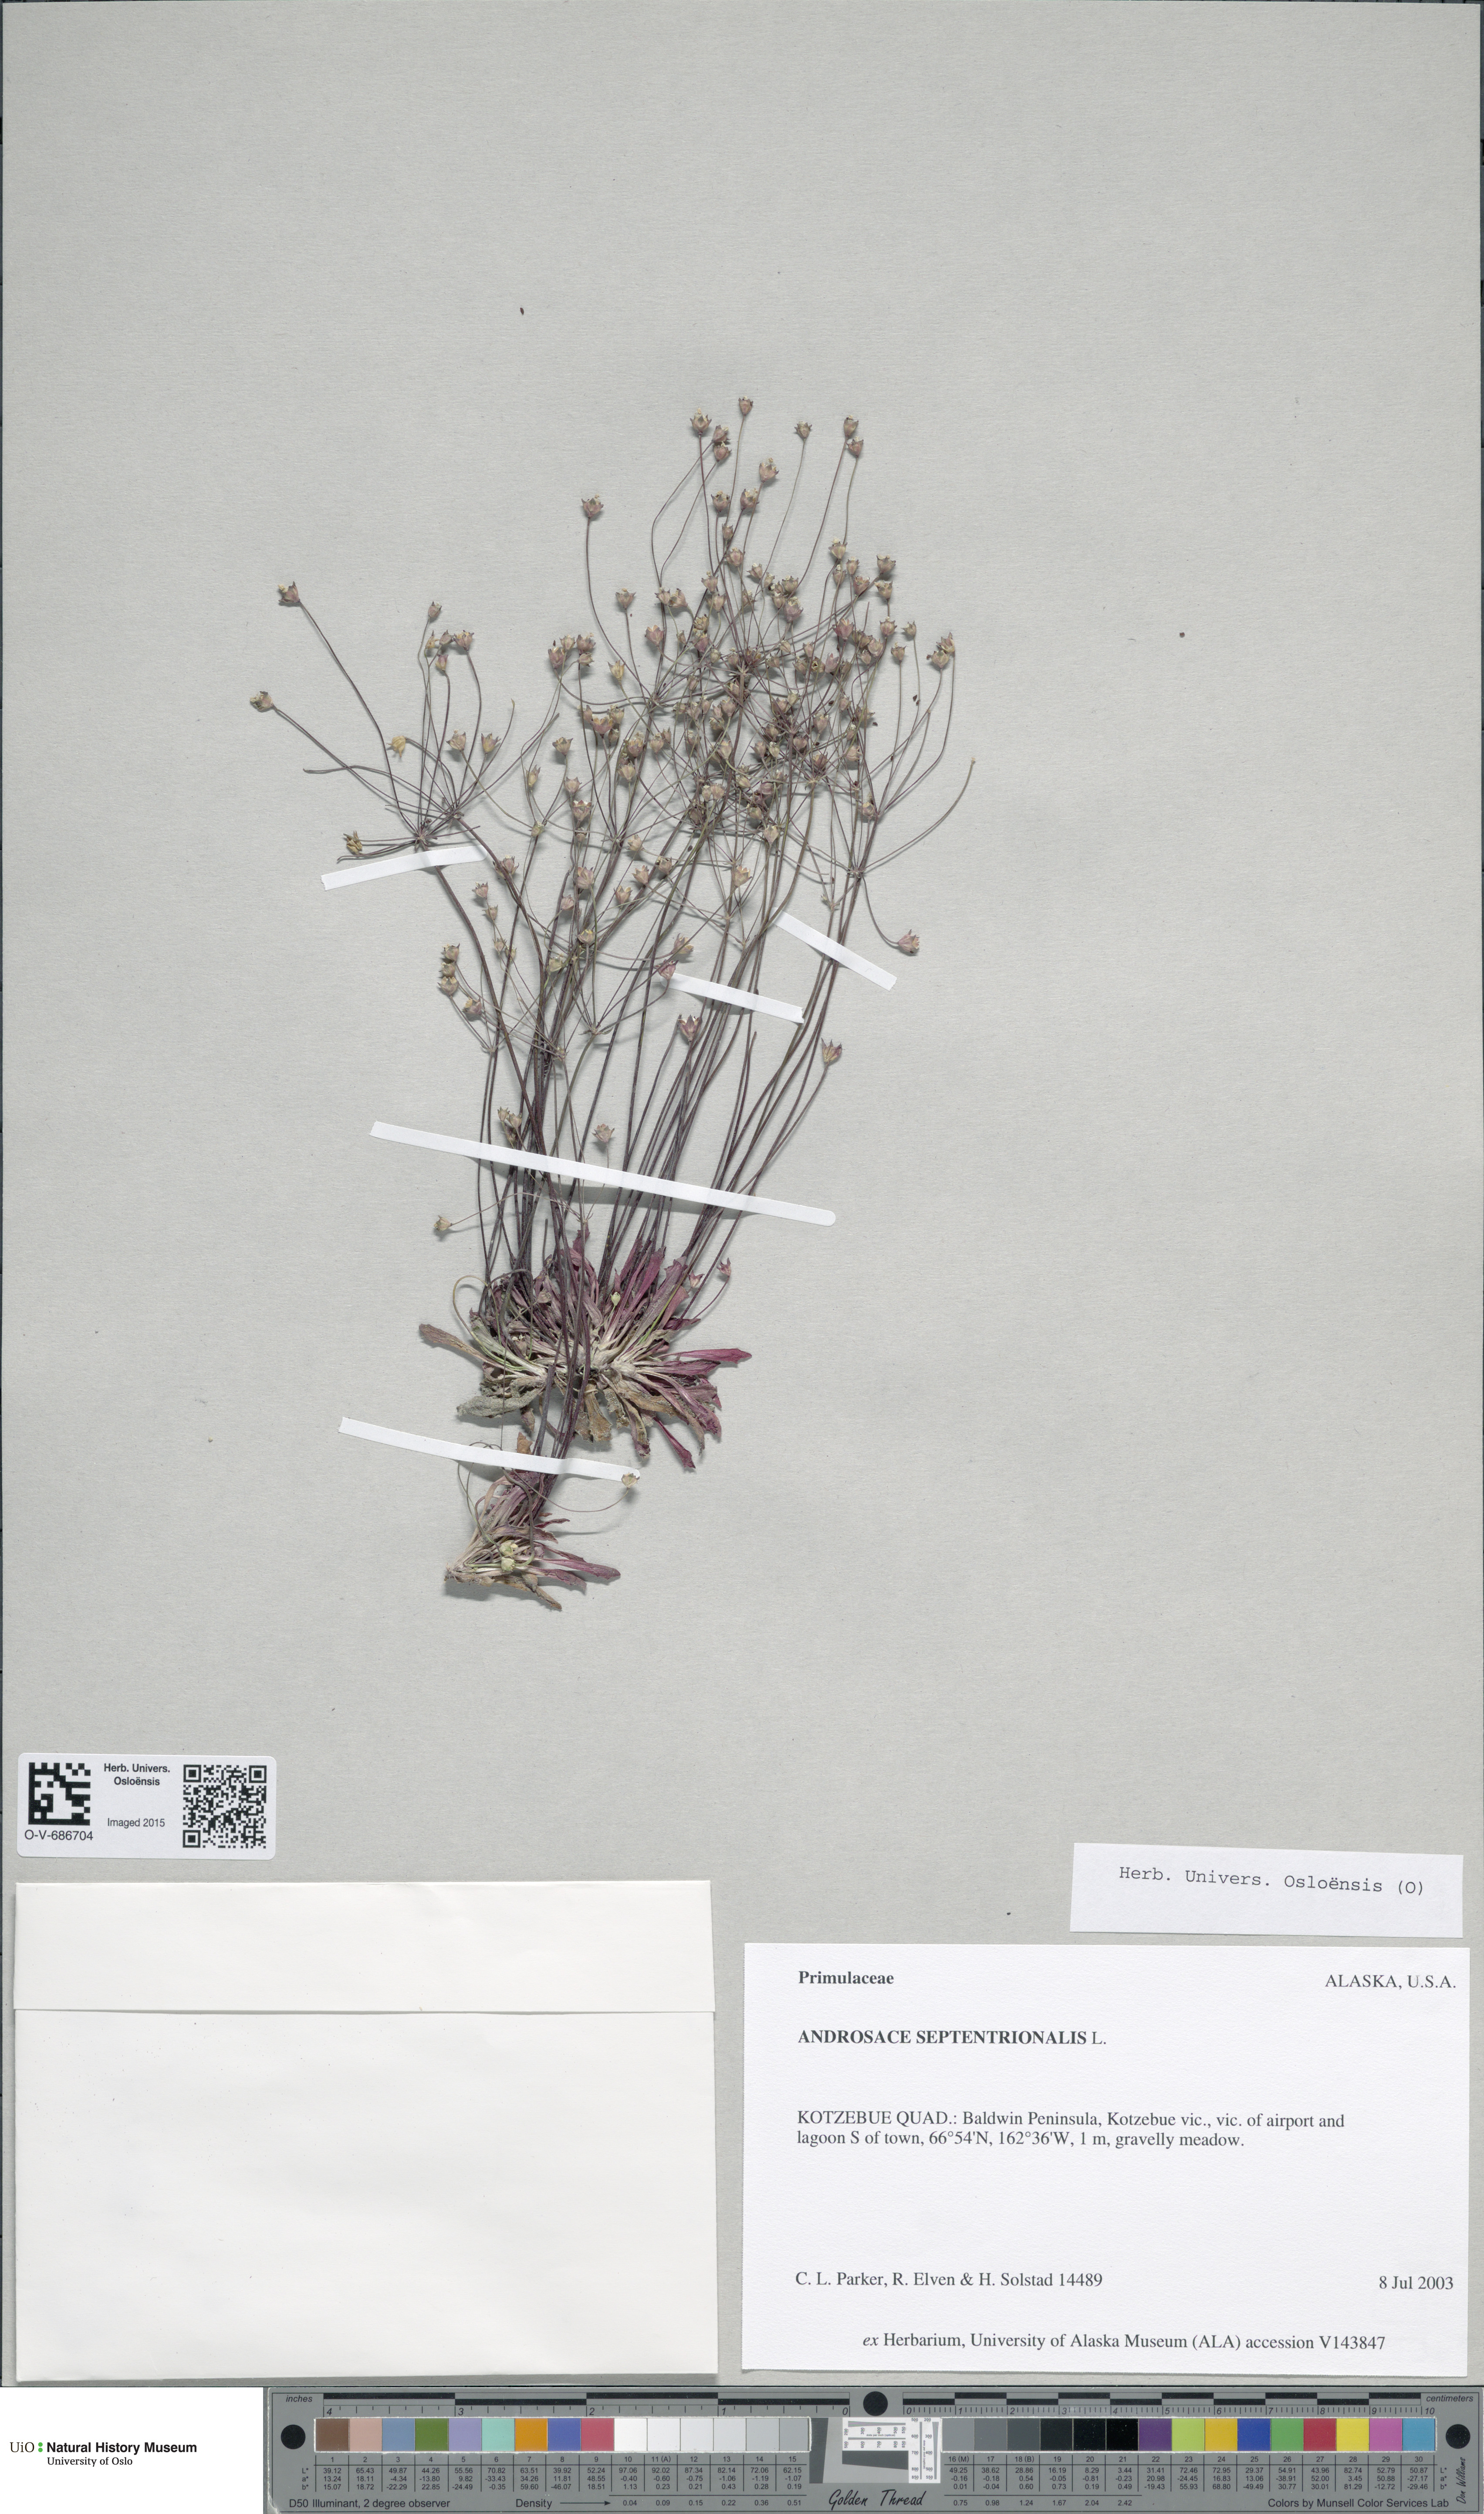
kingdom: Plantae
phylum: Tracheophyta
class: Magnoliopsida
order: Ericales
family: Primulaceae
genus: Androsace
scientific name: Androsace septentrionalis
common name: Hairy northern fairy-candelabra
